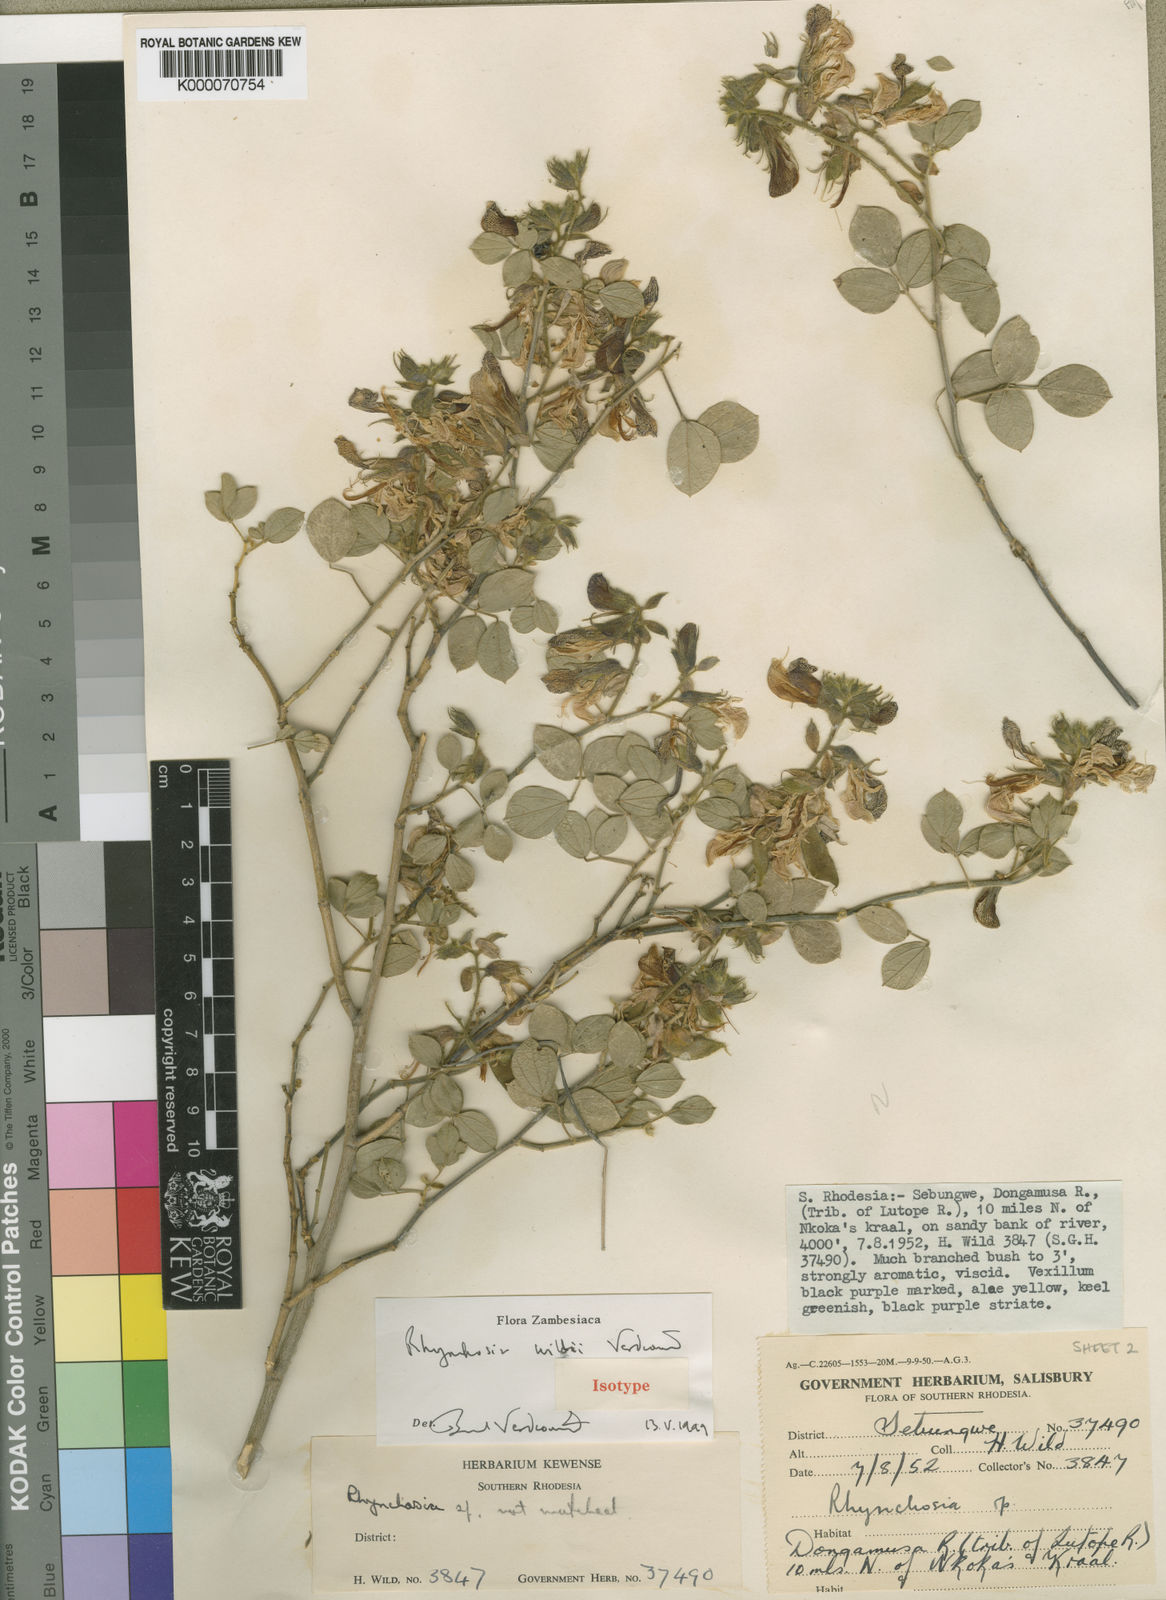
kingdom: Plantae
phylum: Tracheophyta
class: Magnoliopsida
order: Fabales
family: Fabaceae
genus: Rhynchosia
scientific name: Rhynchosia wildii
